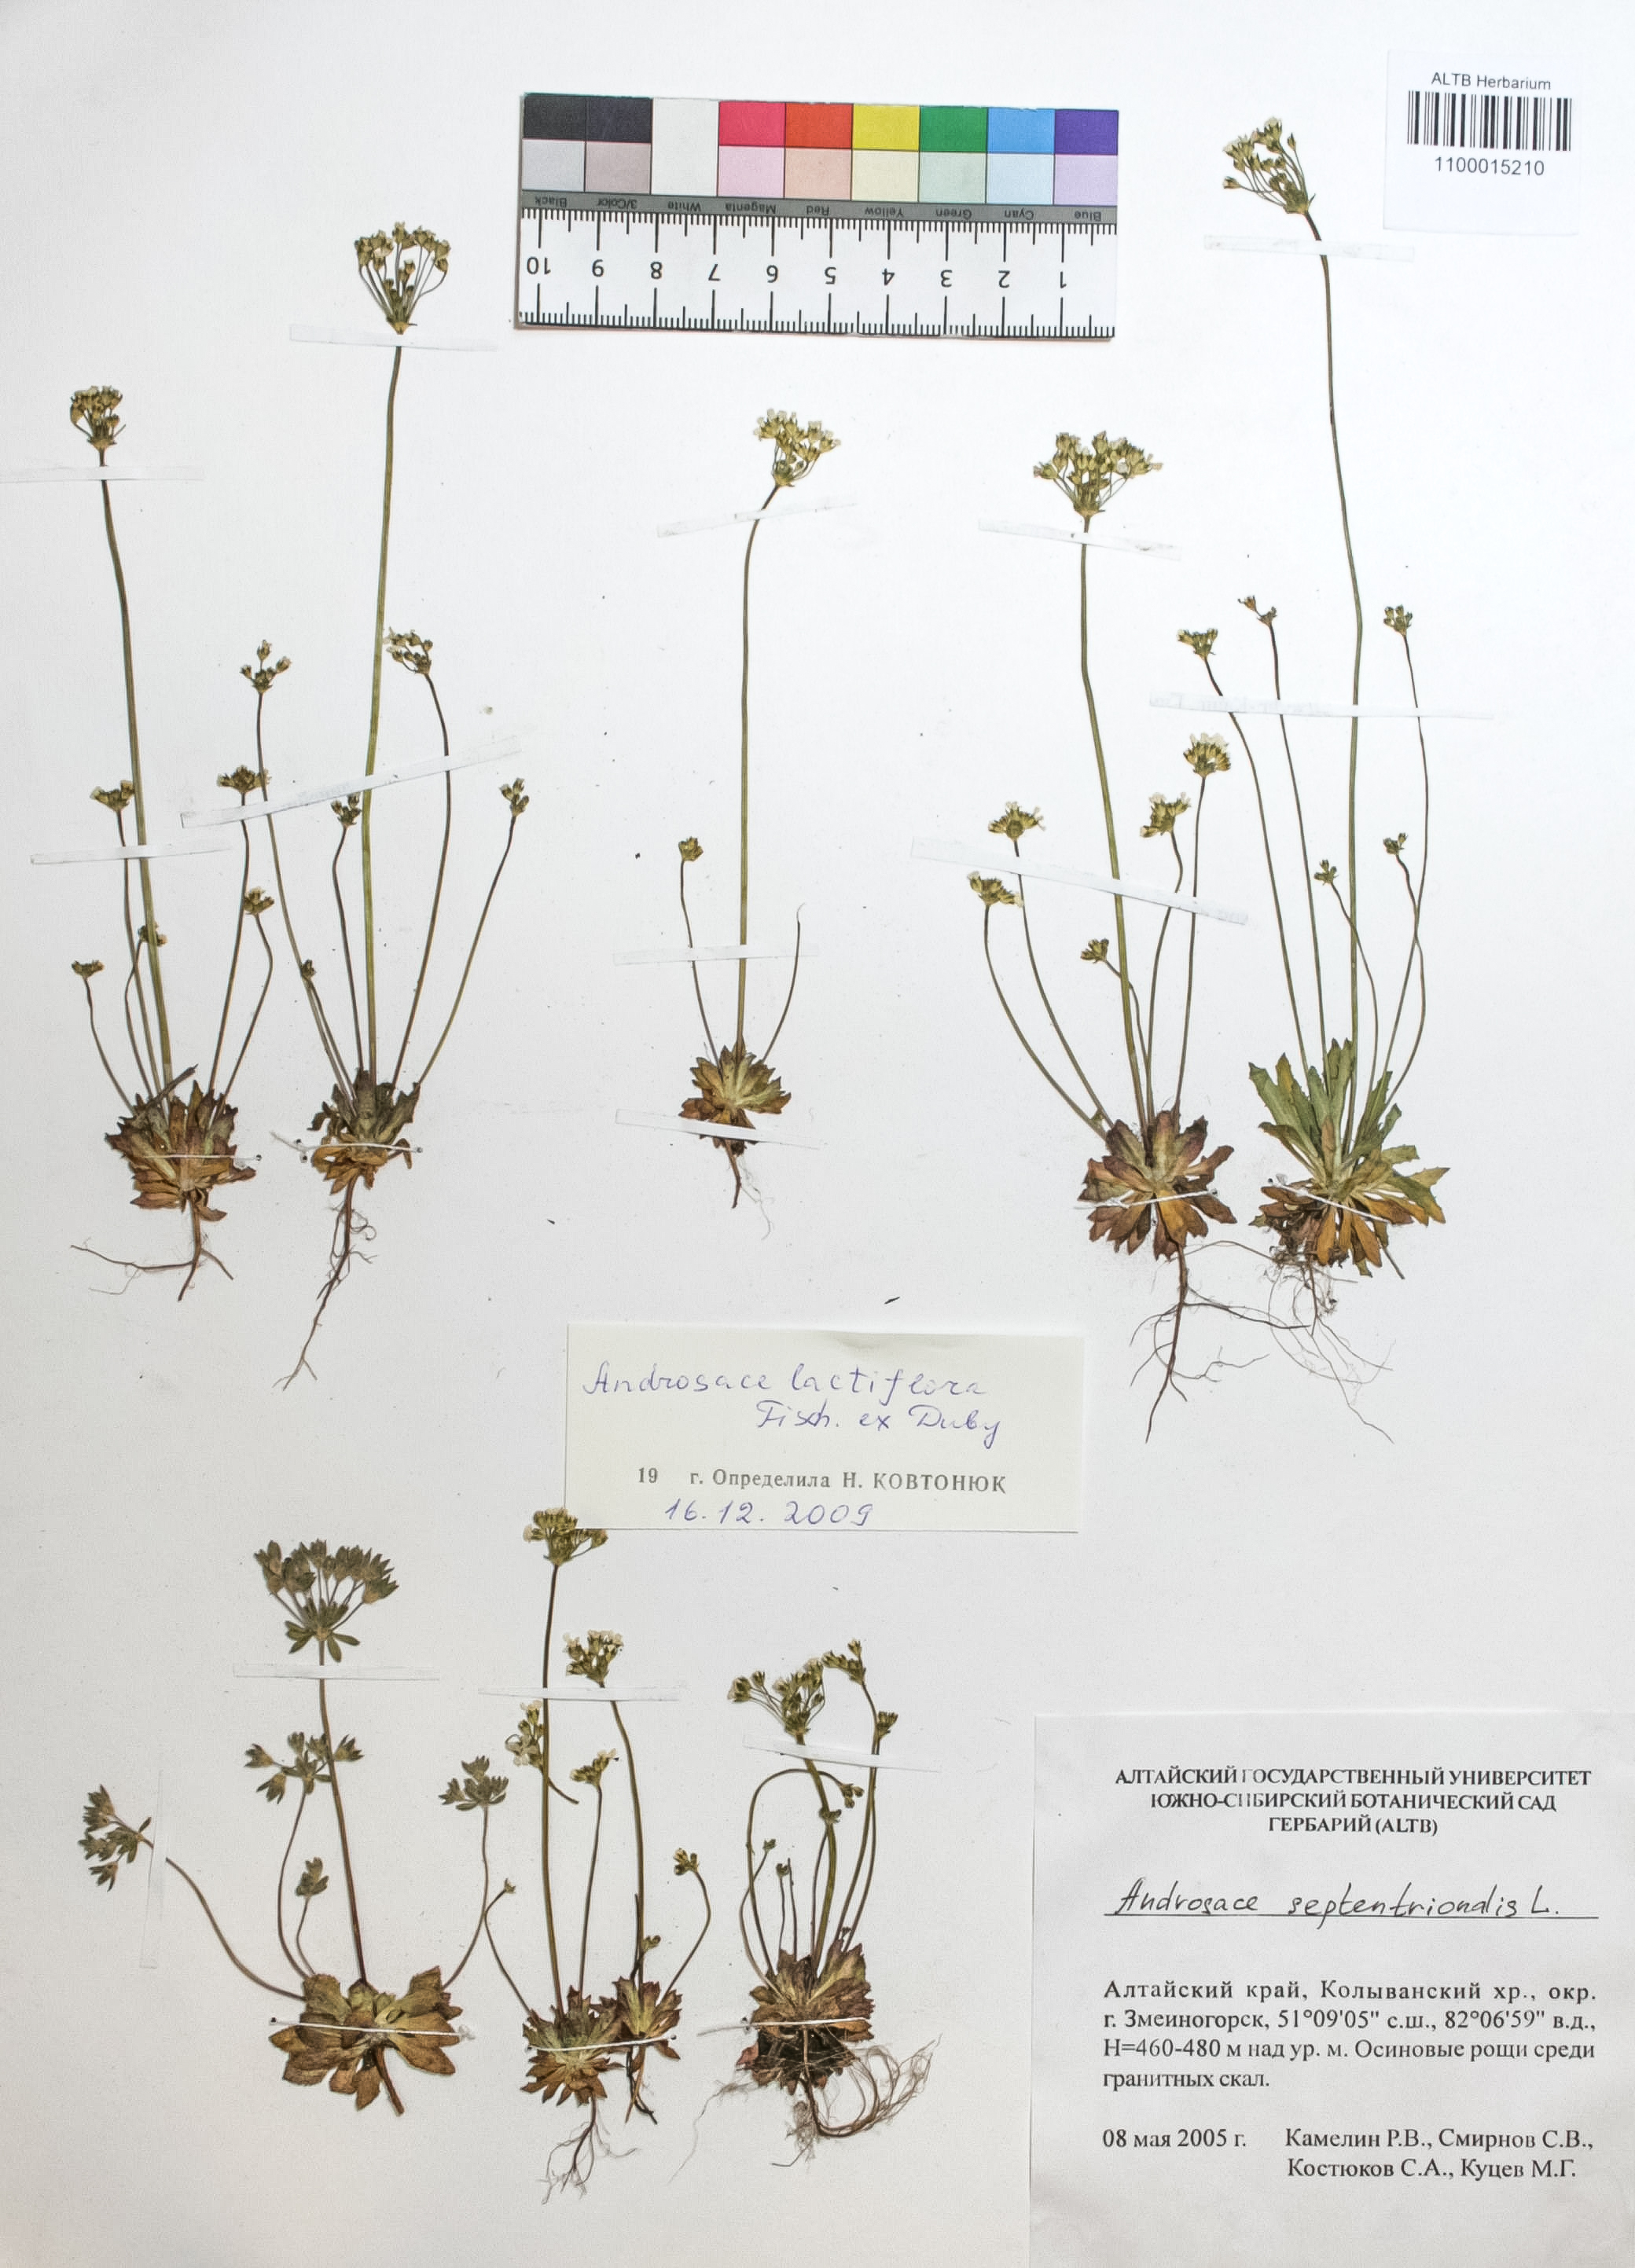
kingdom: Plantae
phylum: Tracheophyta
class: Magnoliopsida
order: Ericales
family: Primulaceae
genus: Androsace
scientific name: Androsace lactiflora
